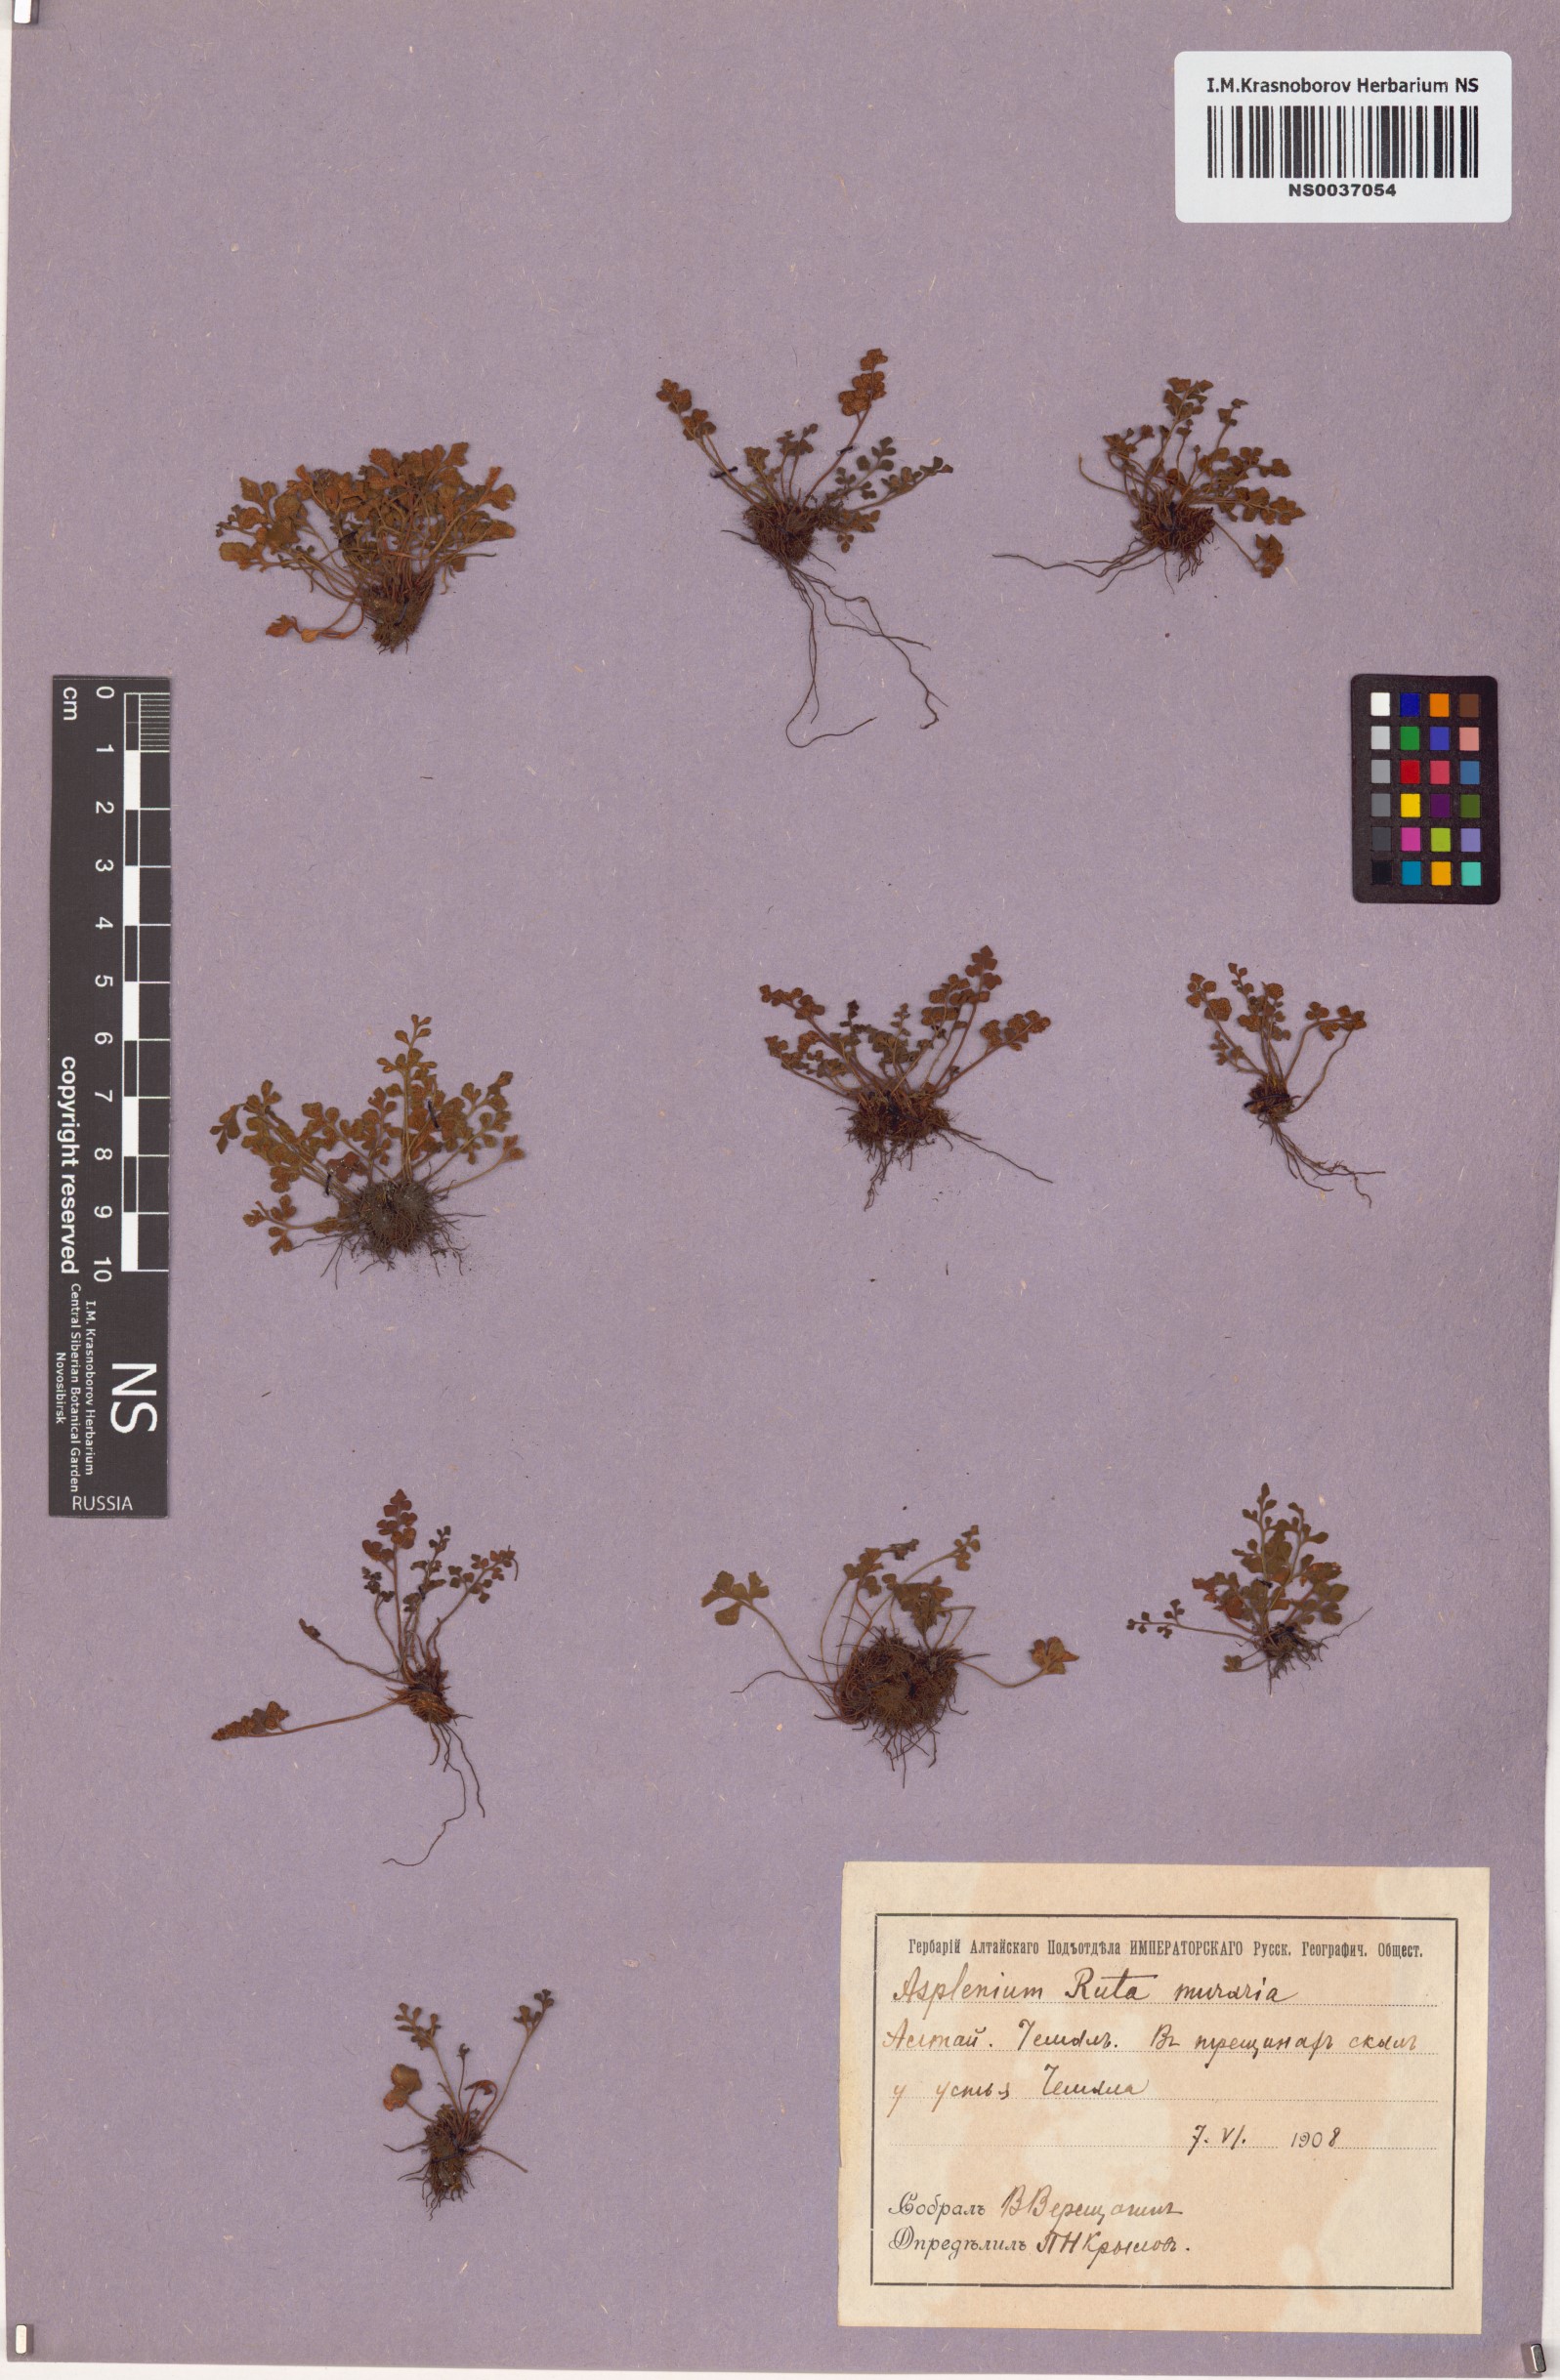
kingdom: Plantae
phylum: Tracheophyta
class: Polypodiopsida
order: Polypodiales
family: Aspleniaceae
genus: Asplenium
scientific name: Asplenium ruta-muraria
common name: Wall-rue
